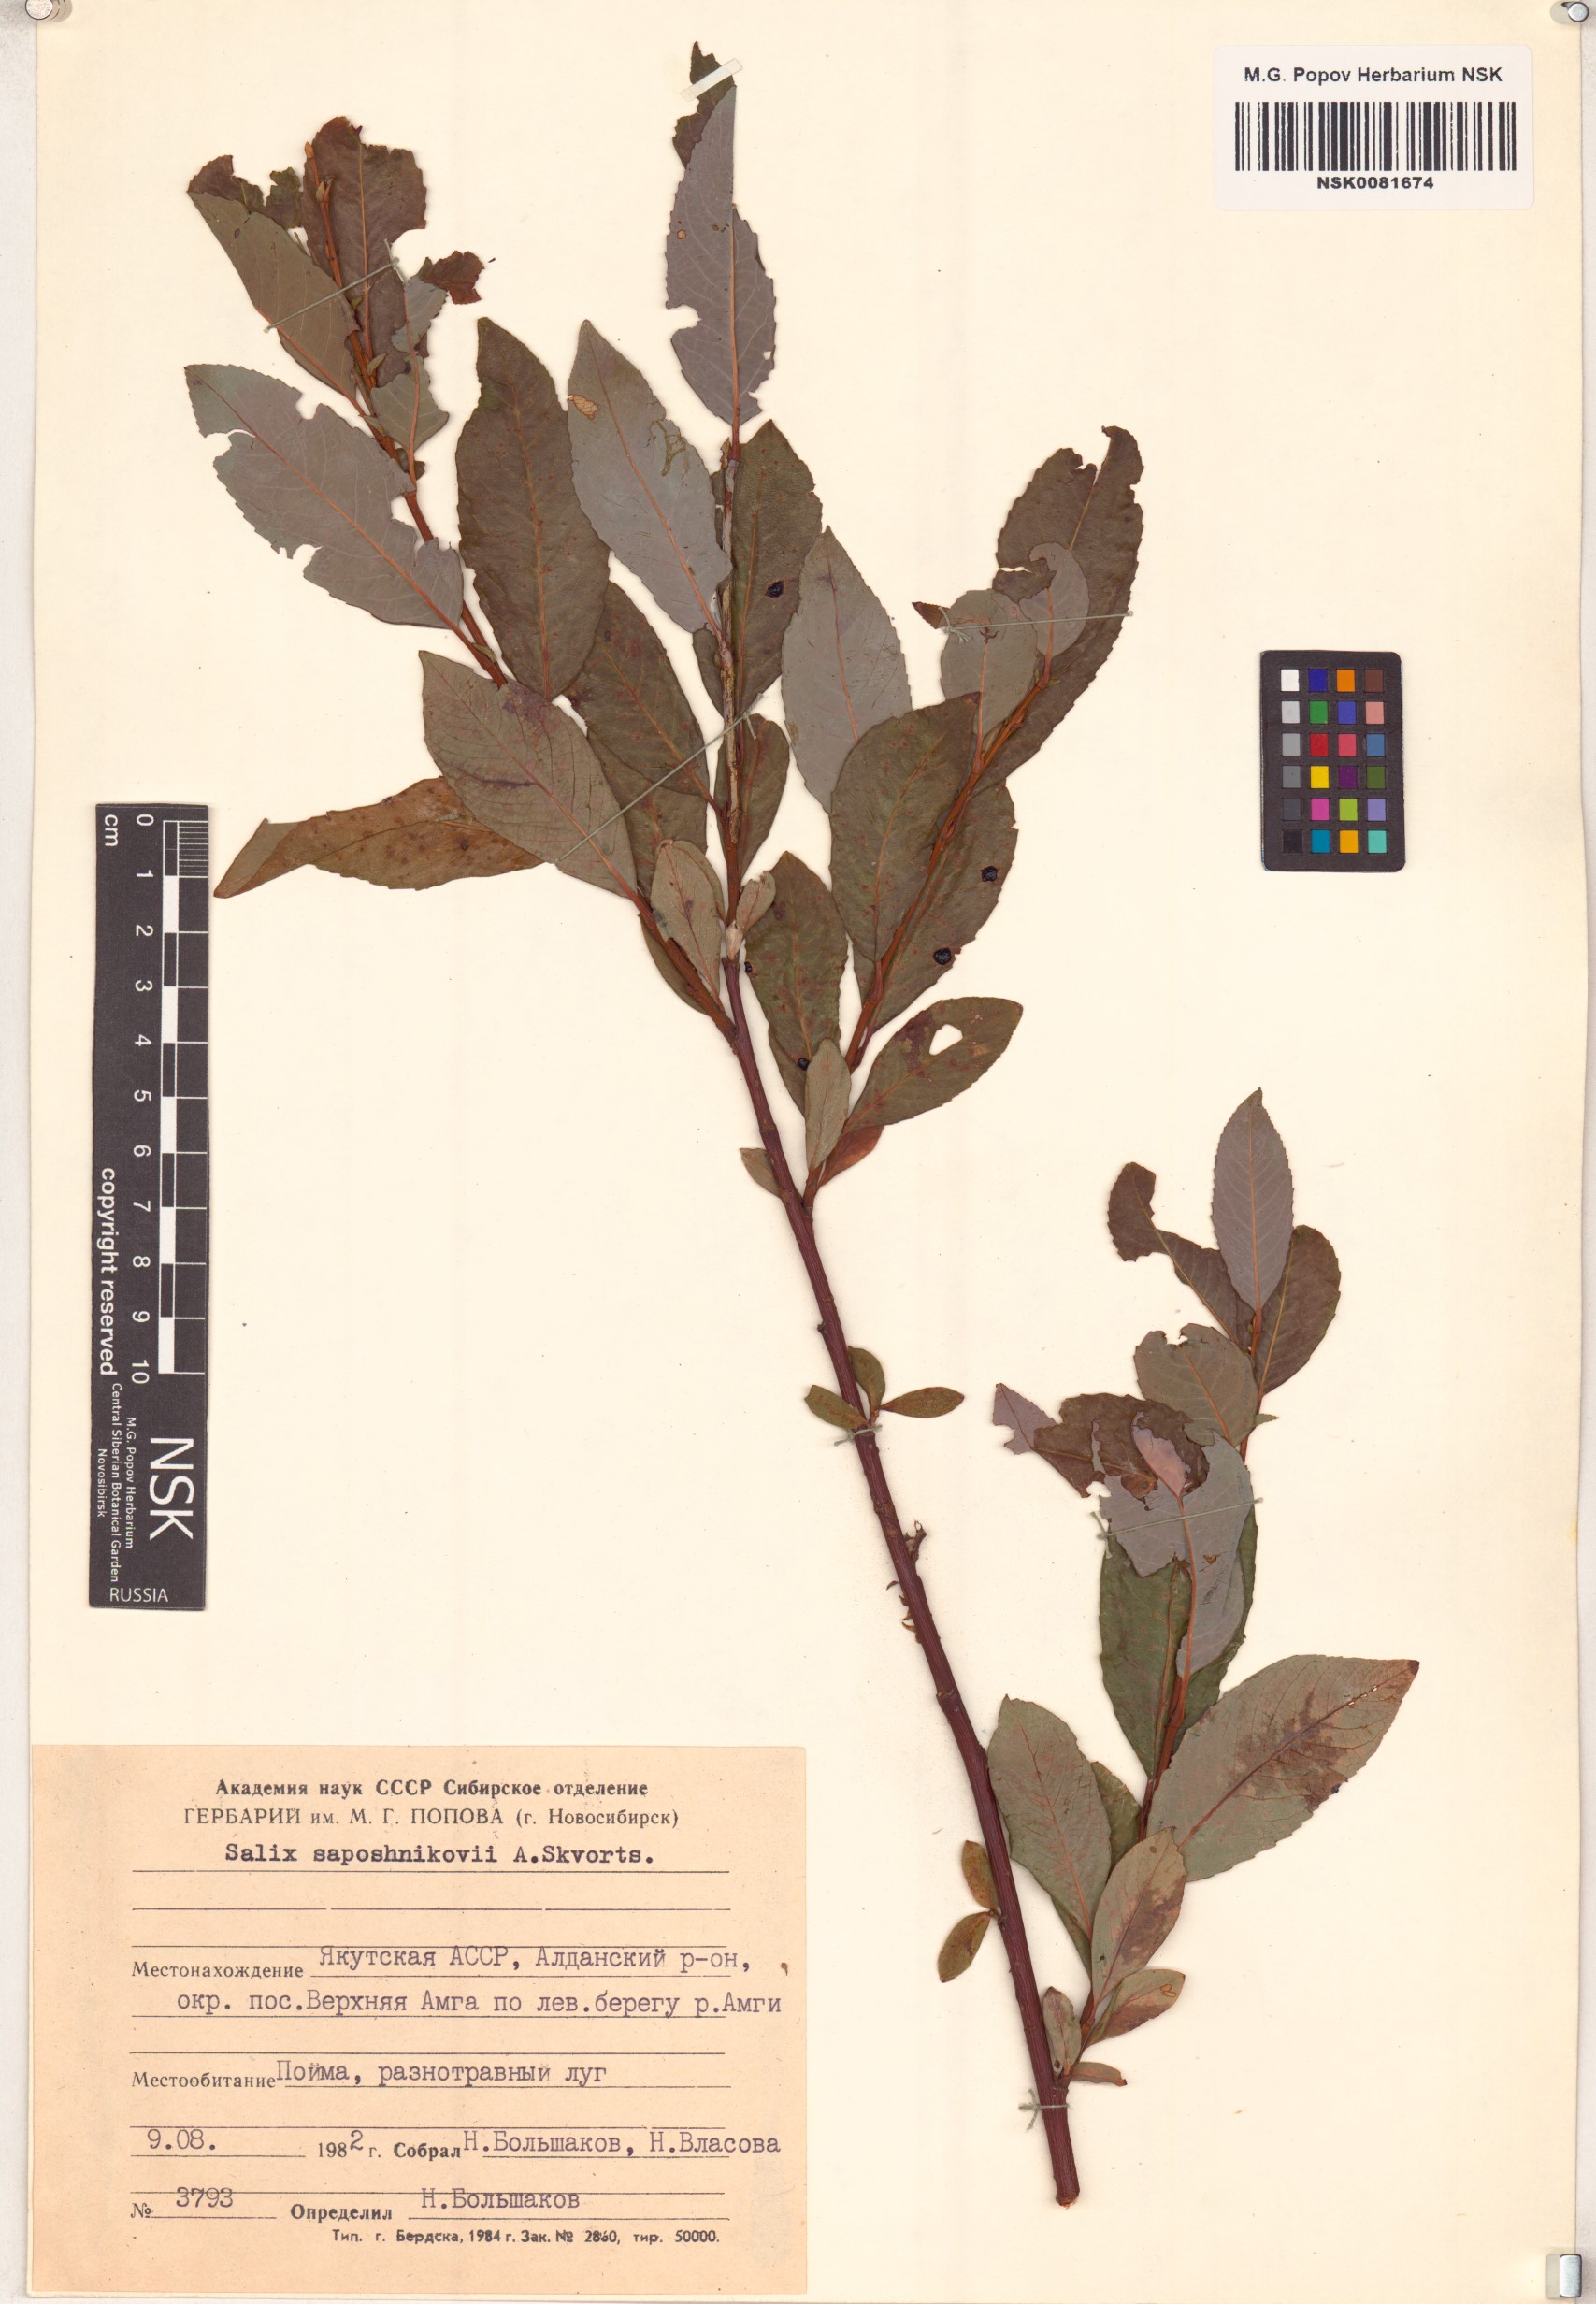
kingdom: Plantae
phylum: Tracheophyta
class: Magnoliopsida
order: Malpighiales
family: Salicaceae
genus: Salix
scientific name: Salix saposhnikovii
